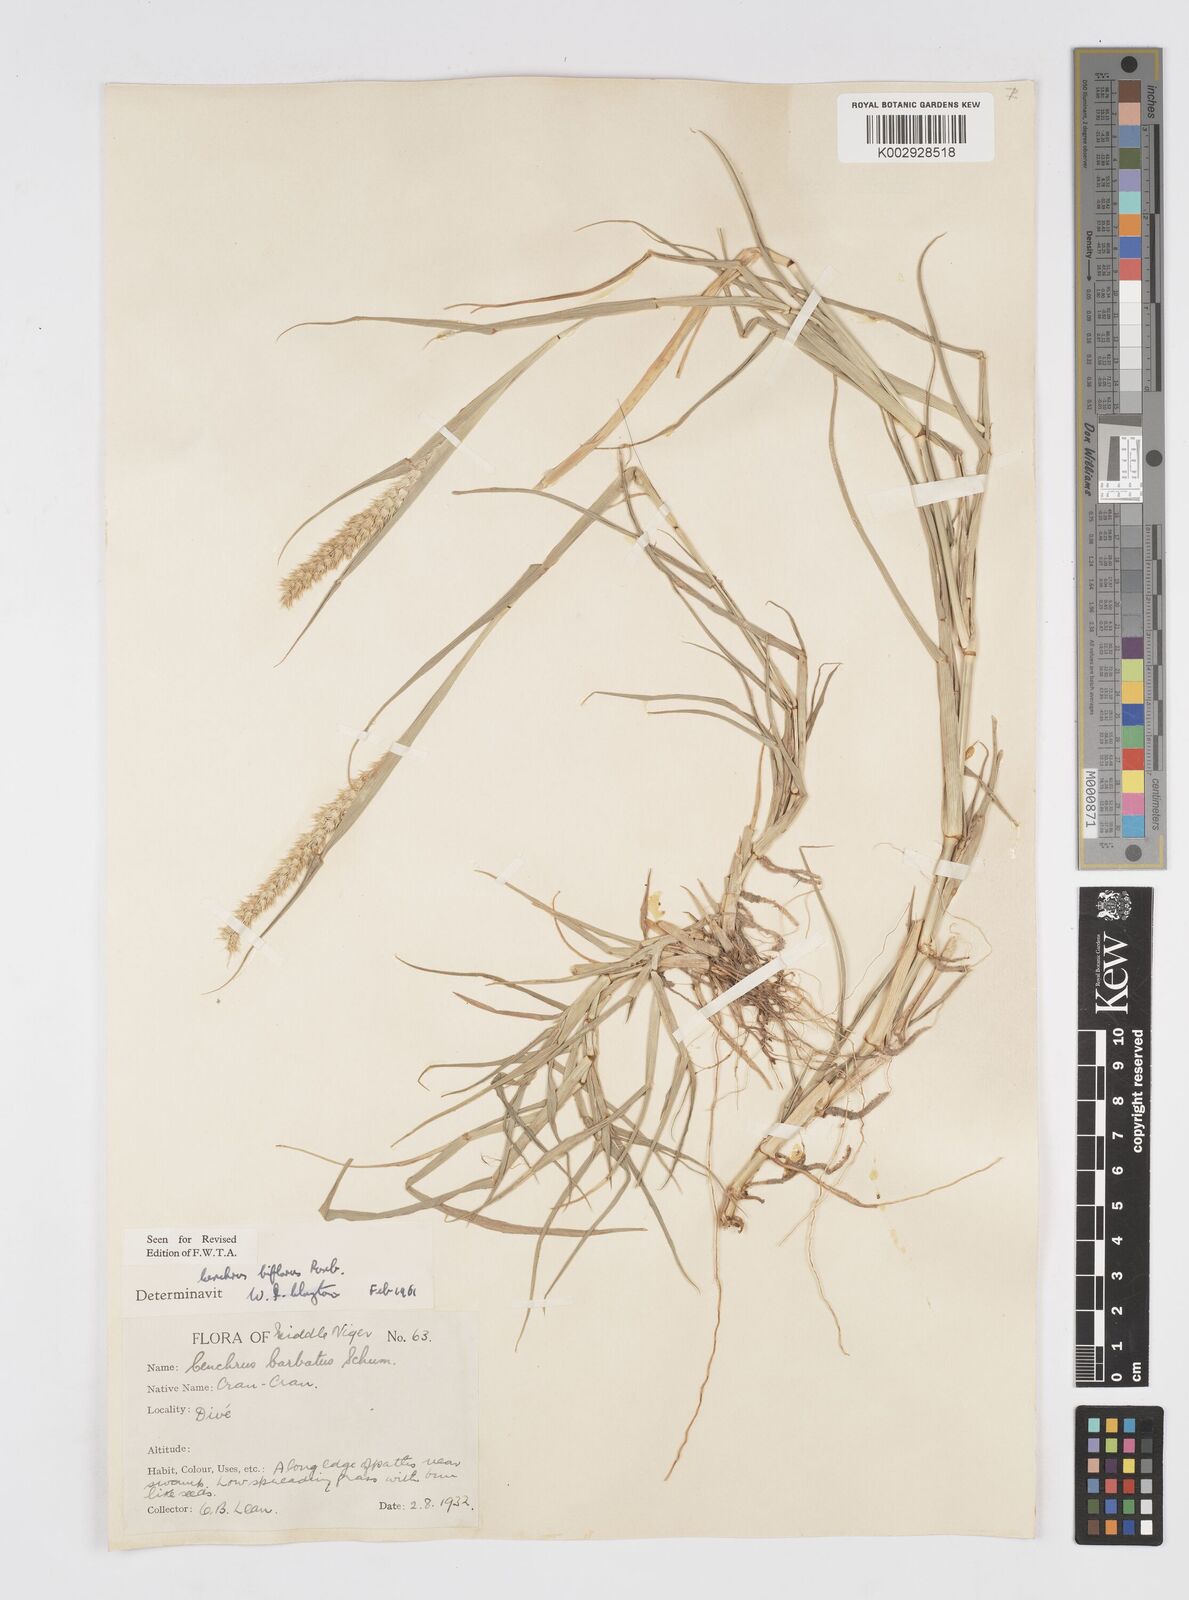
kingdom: Plantae
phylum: Tracheophyta
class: Liliopsida
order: Poales
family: Poaceae
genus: Cenchrus
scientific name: Cenchrus biflorus
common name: Indian sandbur
